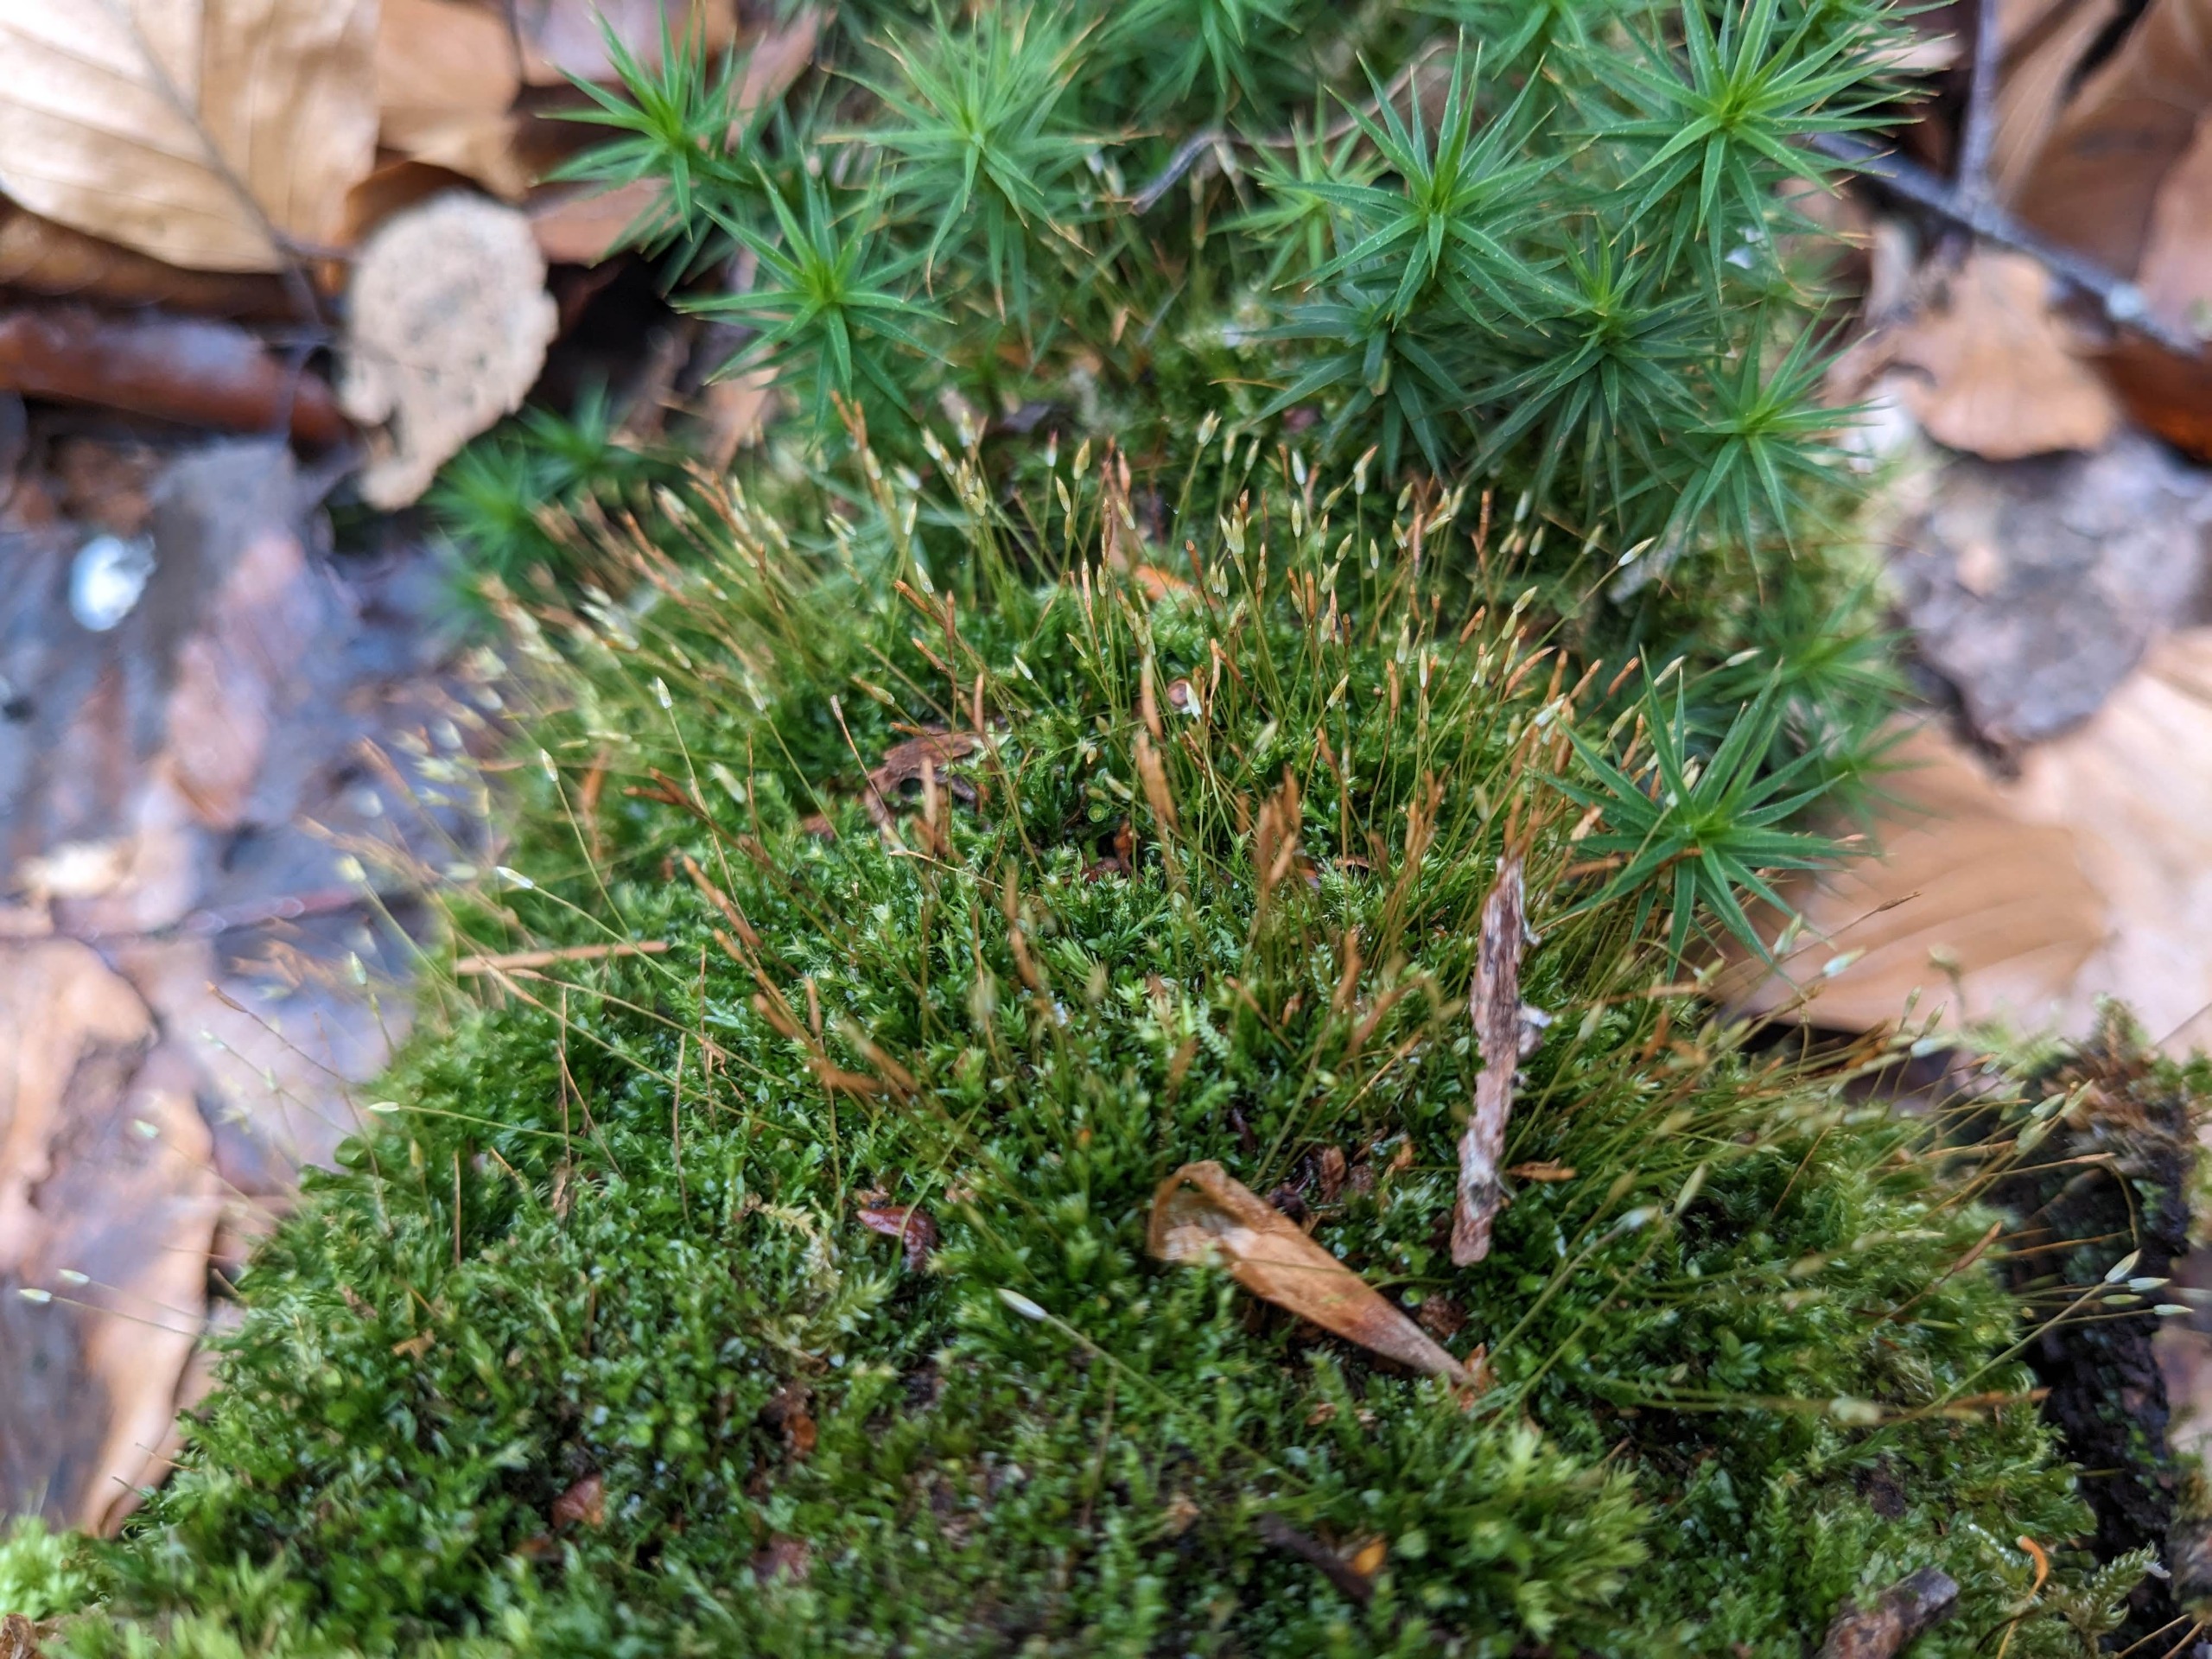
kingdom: Plantae
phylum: Bryophyta
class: Polytrichopsida
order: Tetraphidales
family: Tetraphidaceae
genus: Tetraphis
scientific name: Tetraphis pellucida
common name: Almindelig firtand
